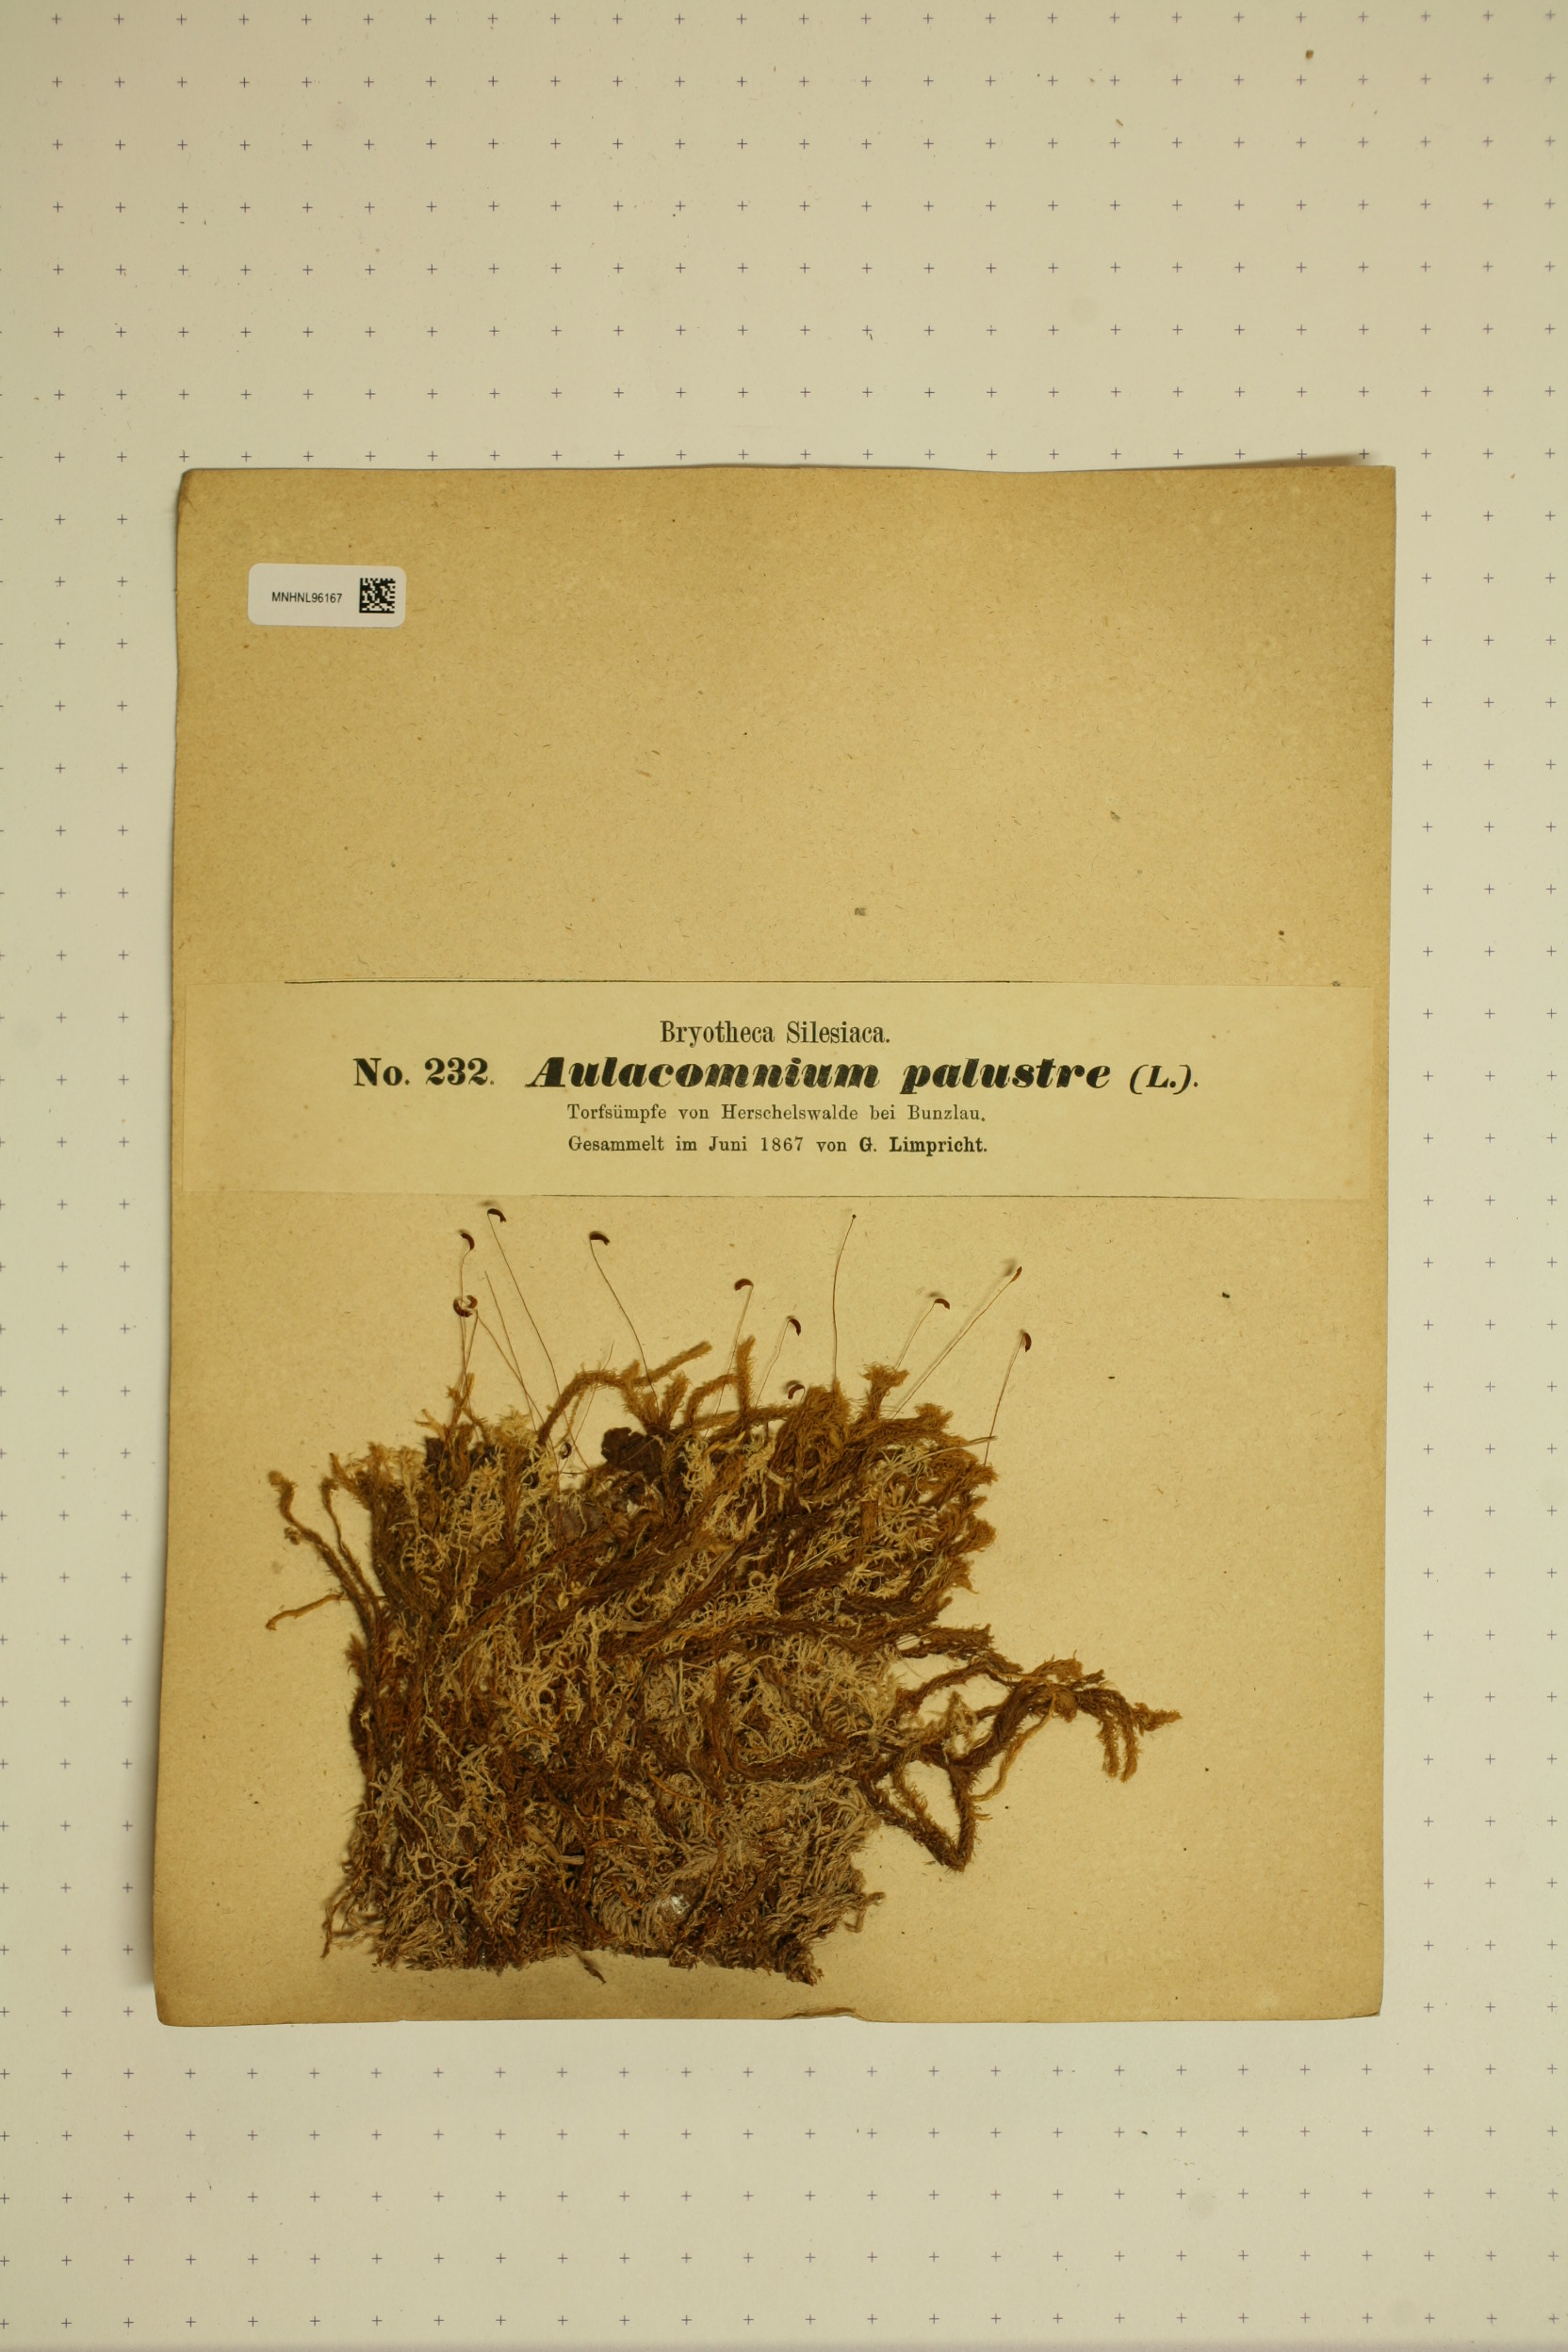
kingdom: Plantae
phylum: Bryophyta
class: Bryopsida
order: Aulacomniales
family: Aulacomniaceae
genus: Aulacomnium
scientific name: Aulacomnium palustre
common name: Bog groove-moss
